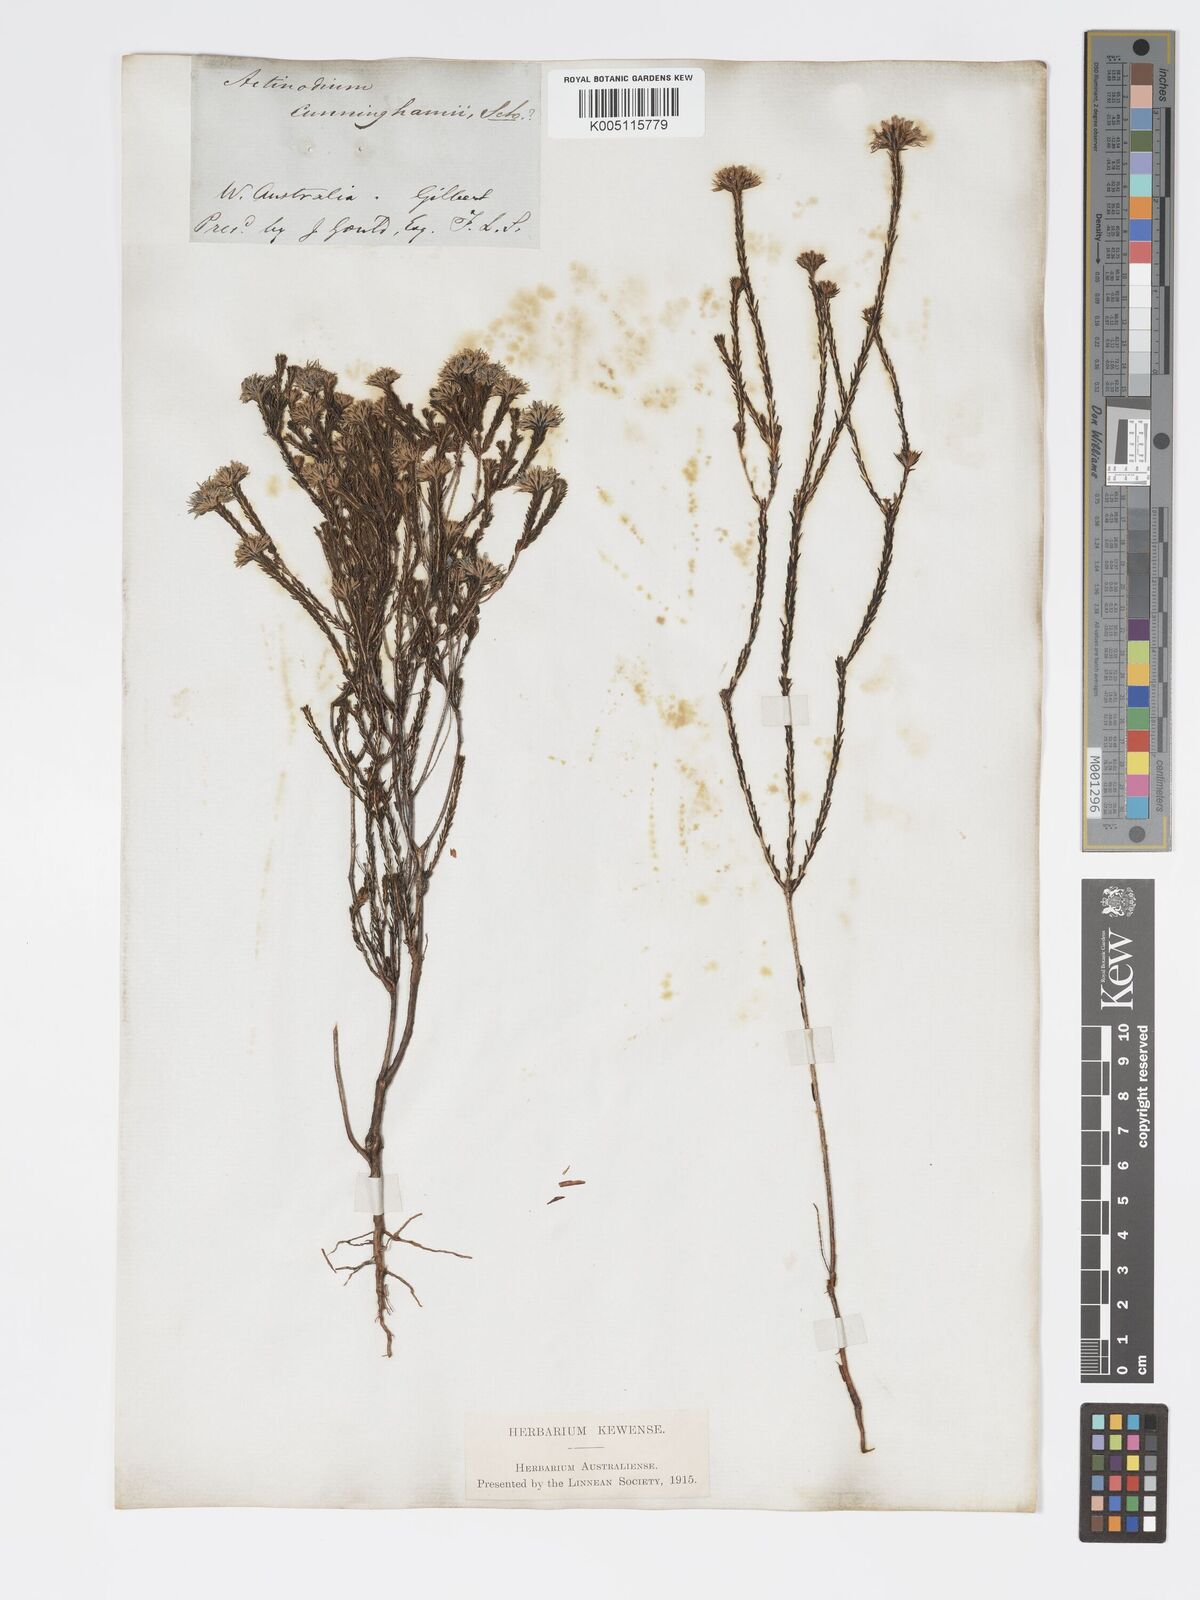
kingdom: Plantae
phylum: Tracheophyta
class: Magnoliopsida
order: Myrtales
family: Myrtaceae
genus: Actinodium
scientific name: Actinodium cunninghamii
